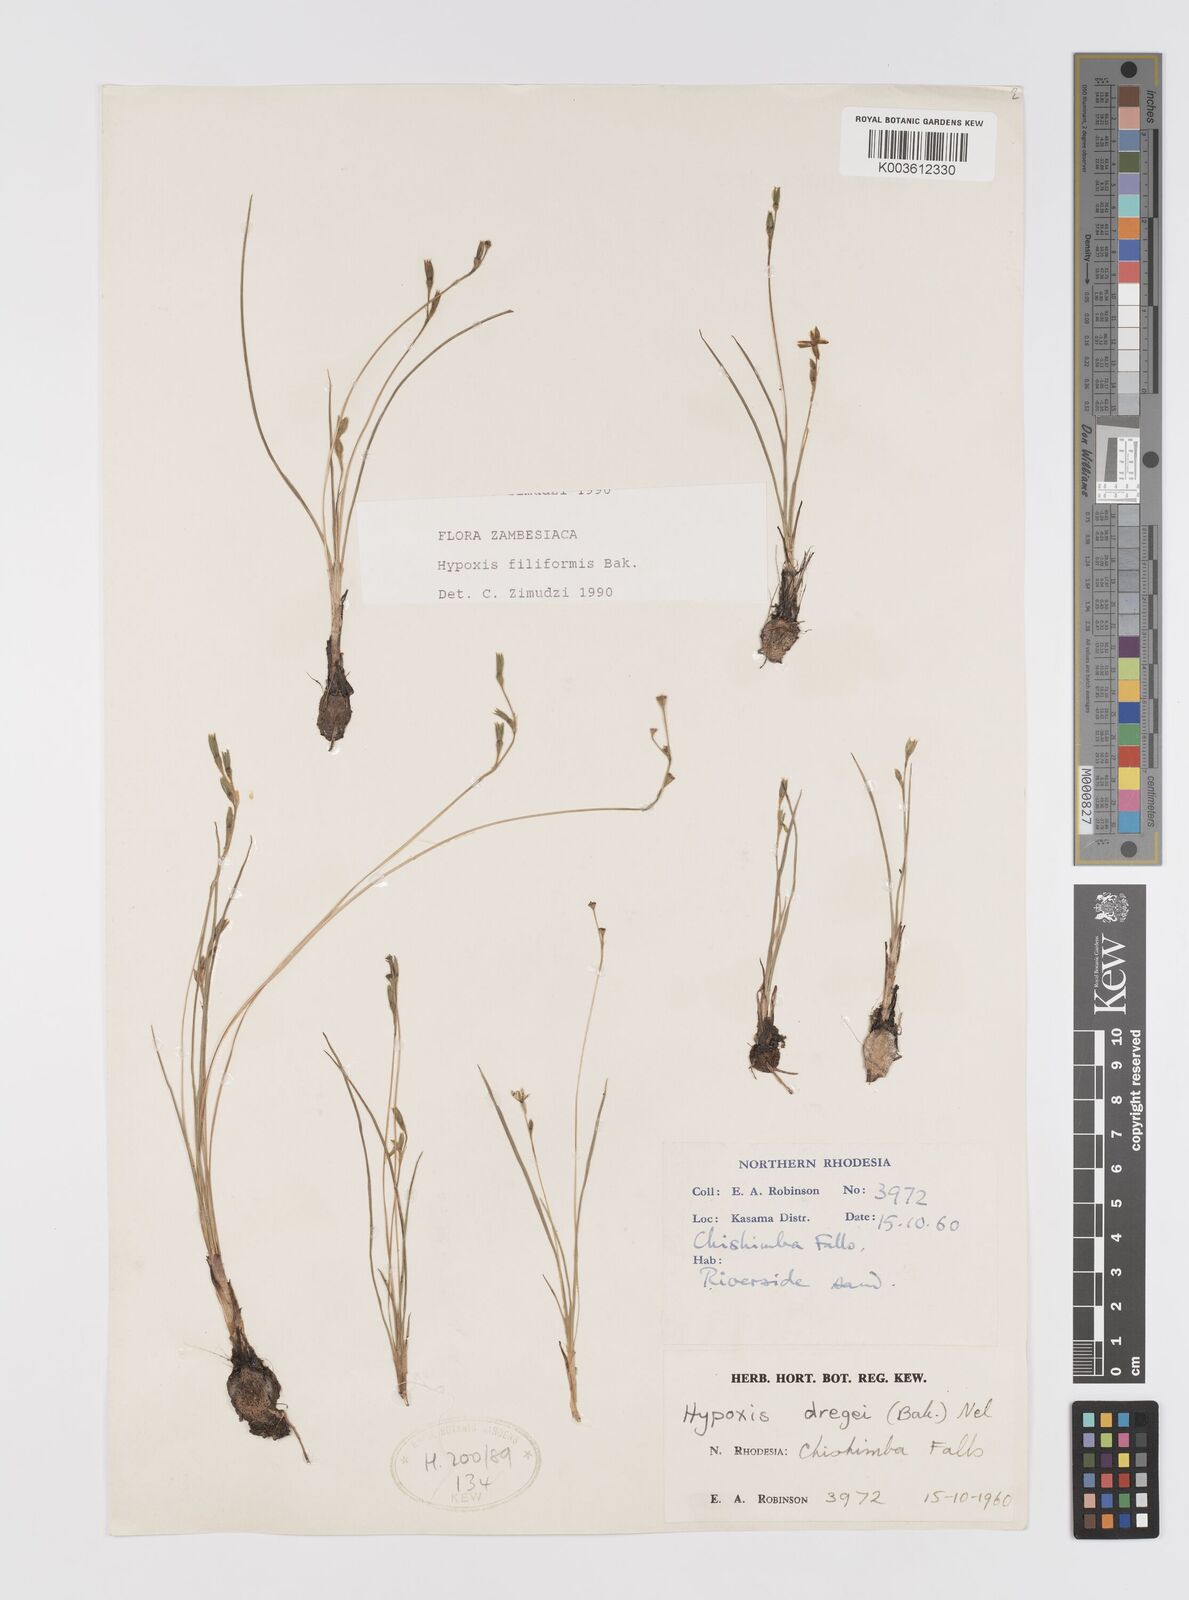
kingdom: Plantae
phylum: Tracheophyta
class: Liliopsida
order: Asparagales
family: Hypoxidaceae
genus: Hypoxis
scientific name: Hypoxis filiformis
